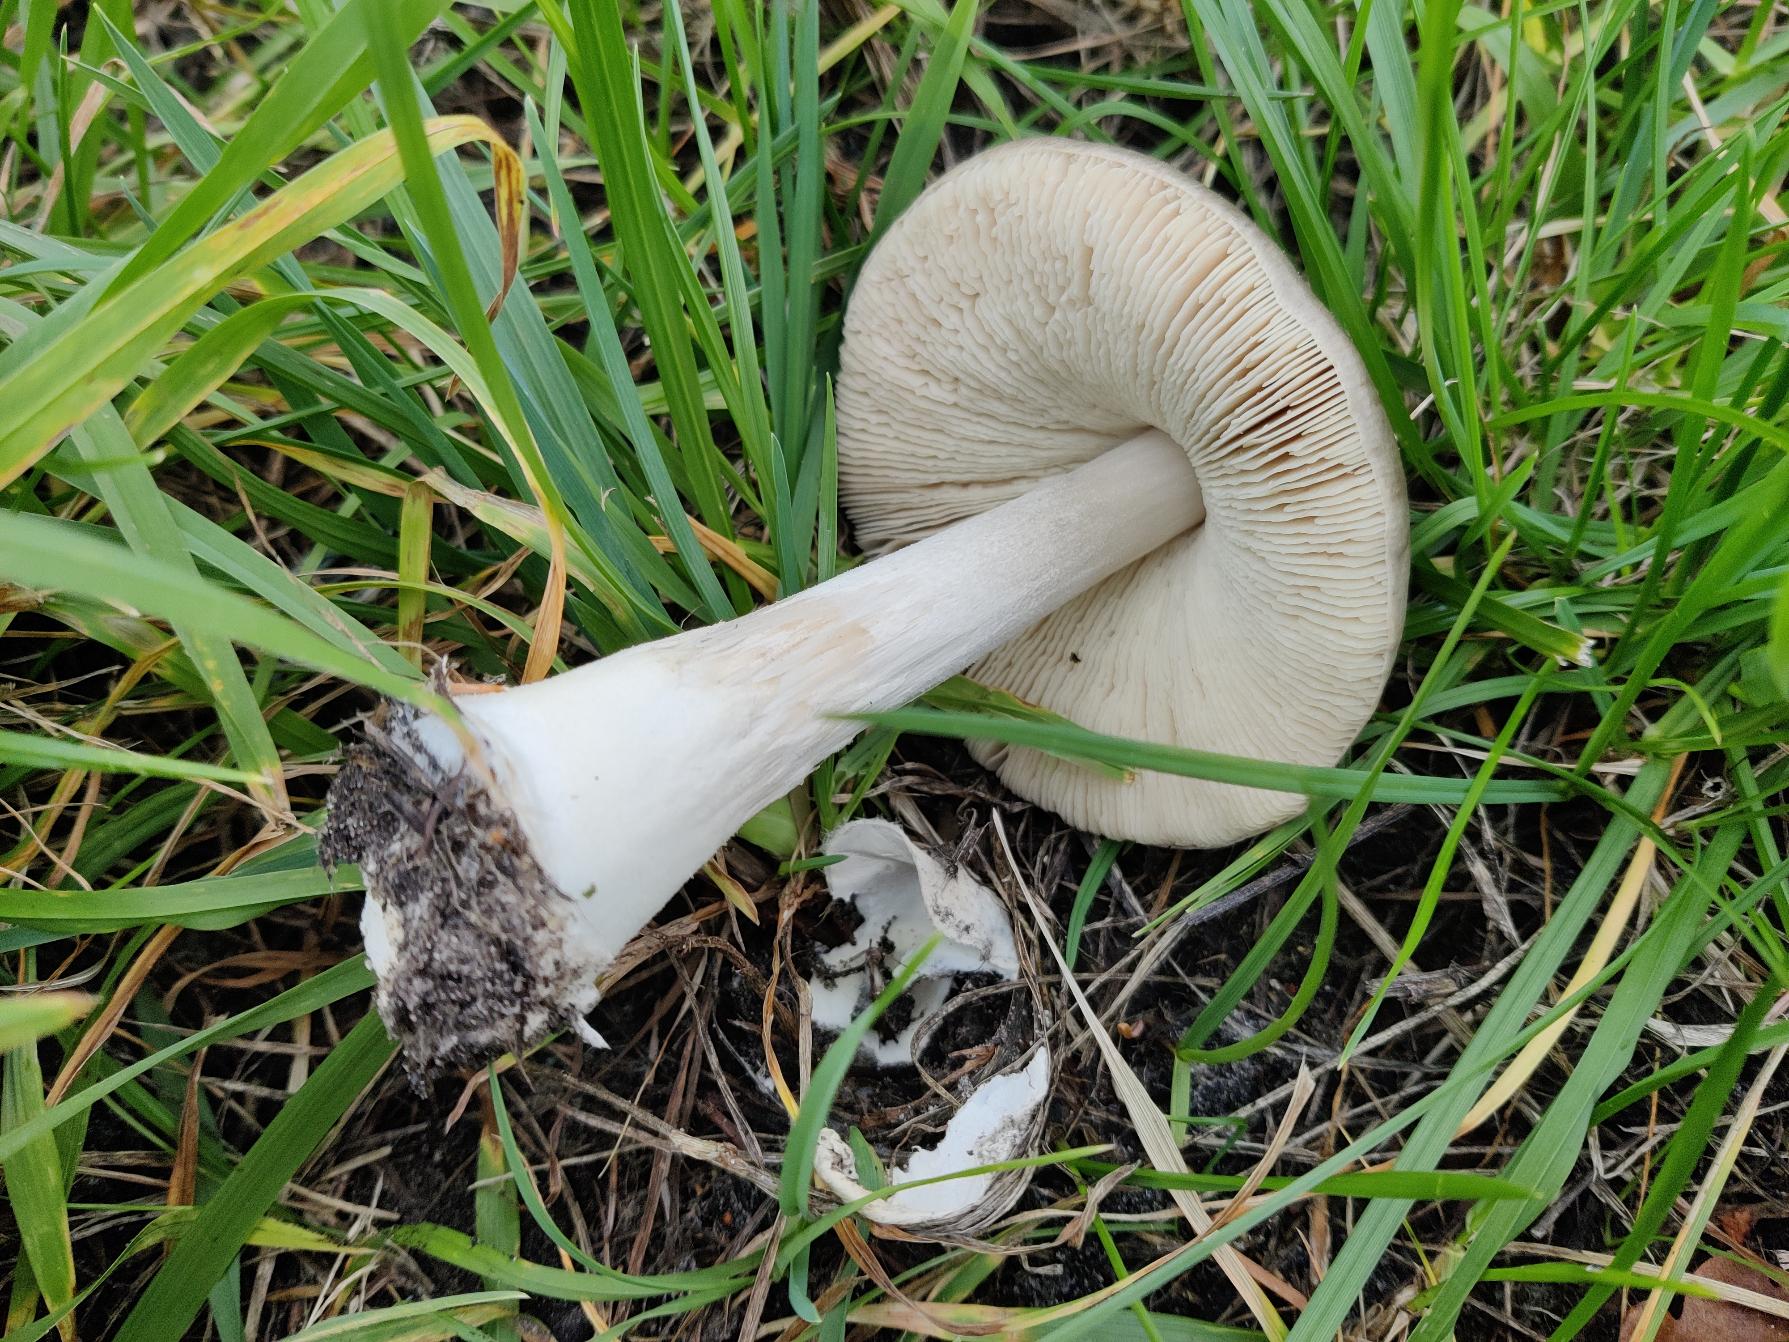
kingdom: Fungi
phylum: Basidiomycota
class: Agaricomycetes
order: Agaricales
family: Pluteaceae
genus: Volvopluteus
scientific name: Volvopluteus gloiocephalus
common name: Høj posesvamp
